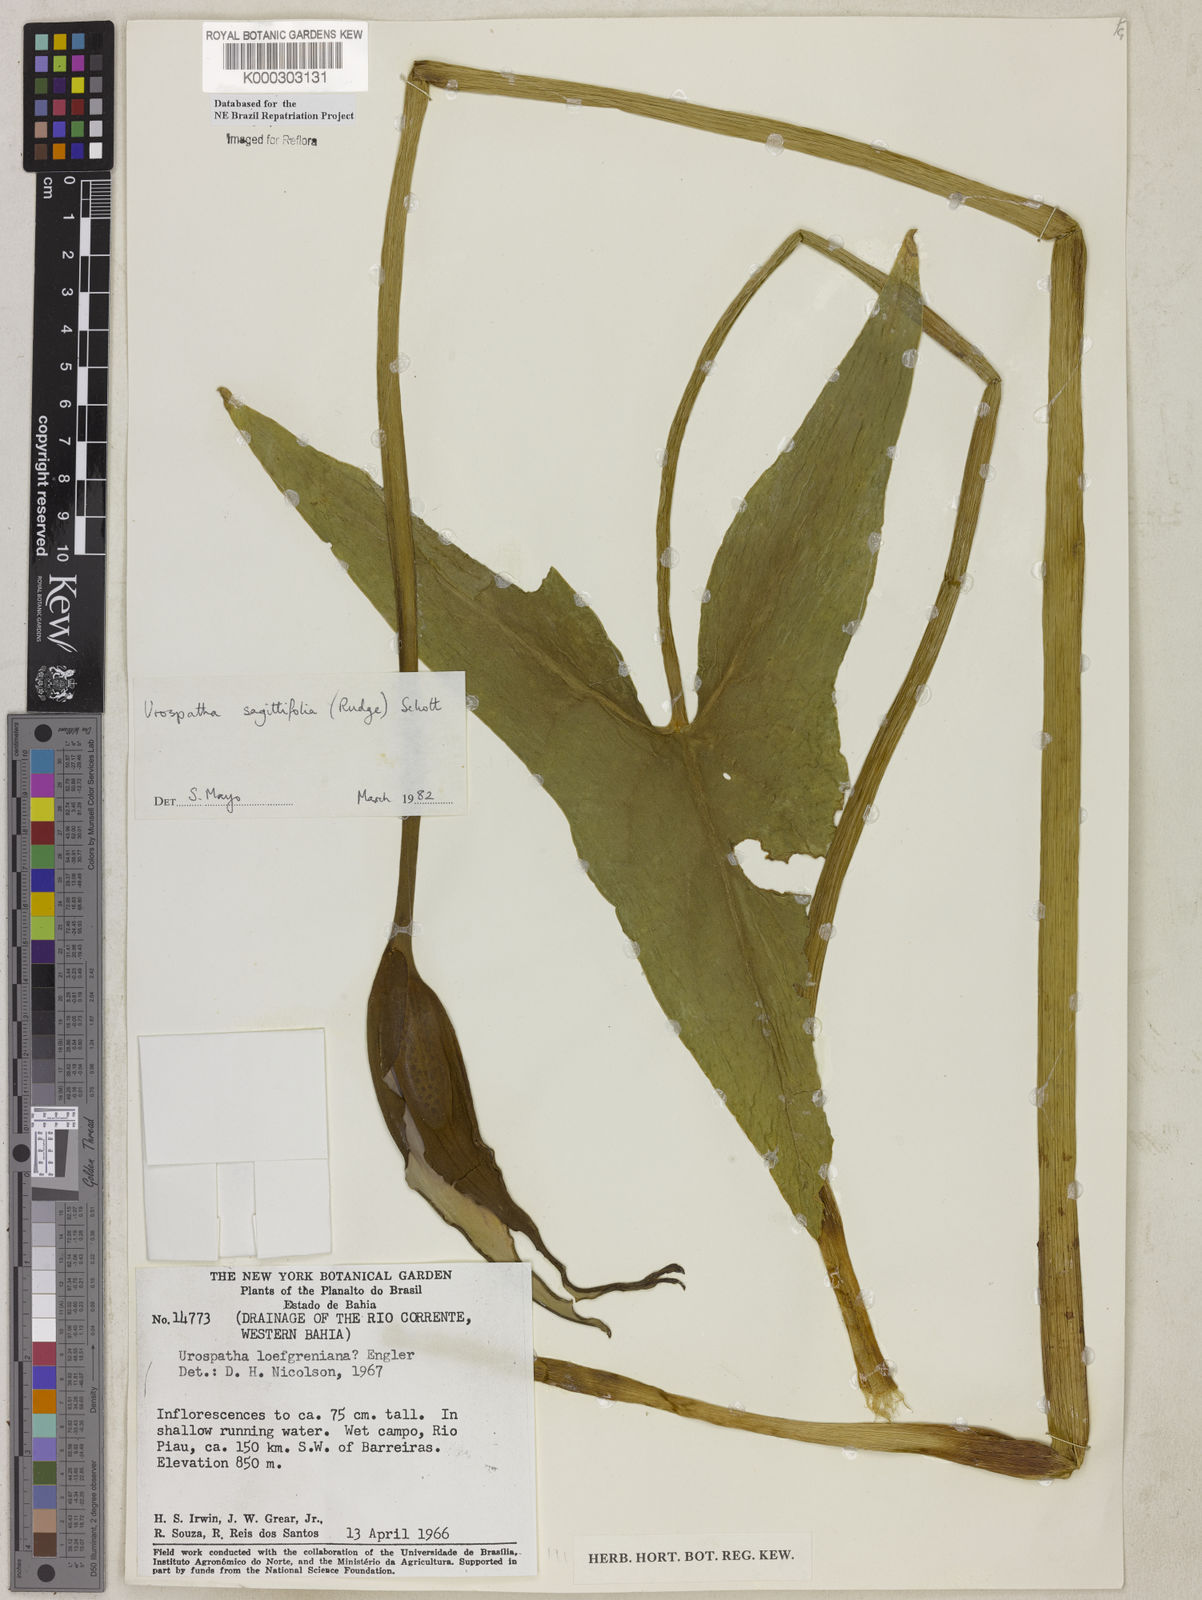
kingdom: Plantae
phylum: Tracheophyta
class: Liliopsida
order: Alismatales
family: Araceae
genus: Urospatha
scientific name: Urospatha sagittifolia
